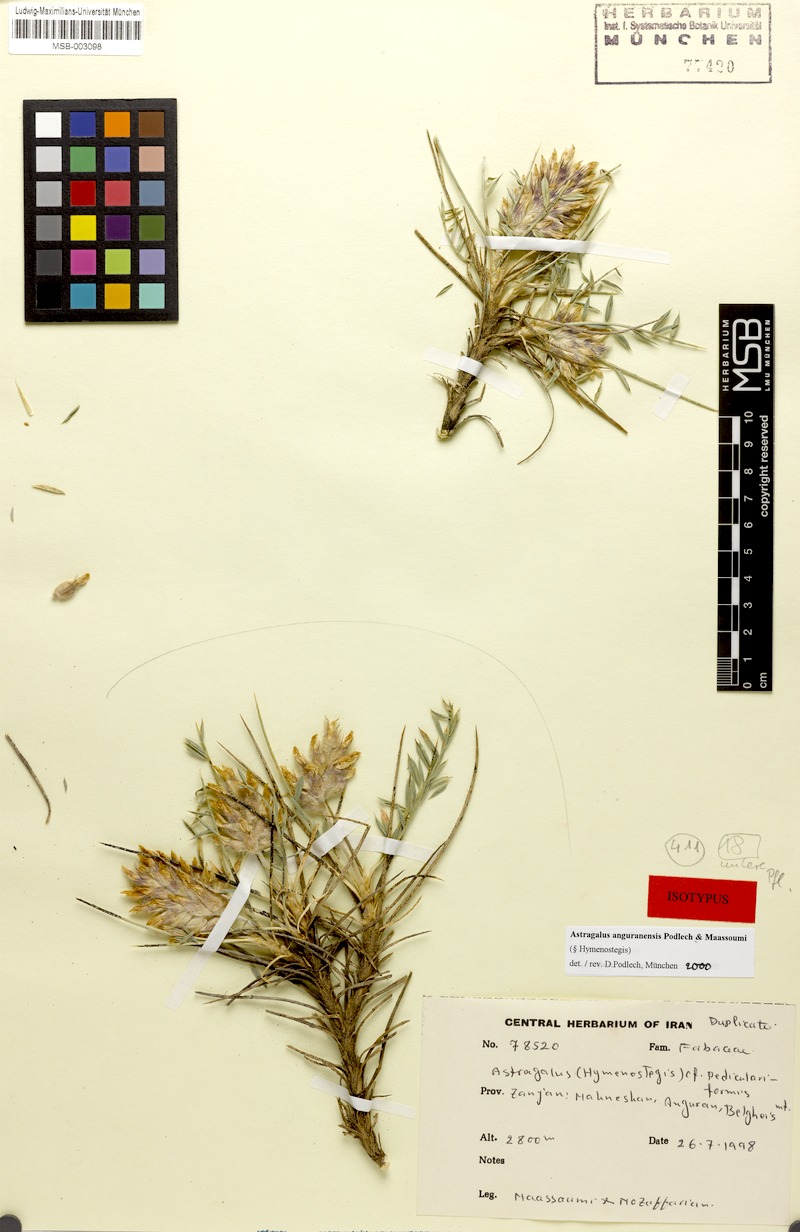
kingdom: Plantae
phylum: Tracheophyta
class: Magnoliopsida
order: Fabales
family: Fabaceae
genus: Astragalus
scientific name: Astragalus anguranensis
